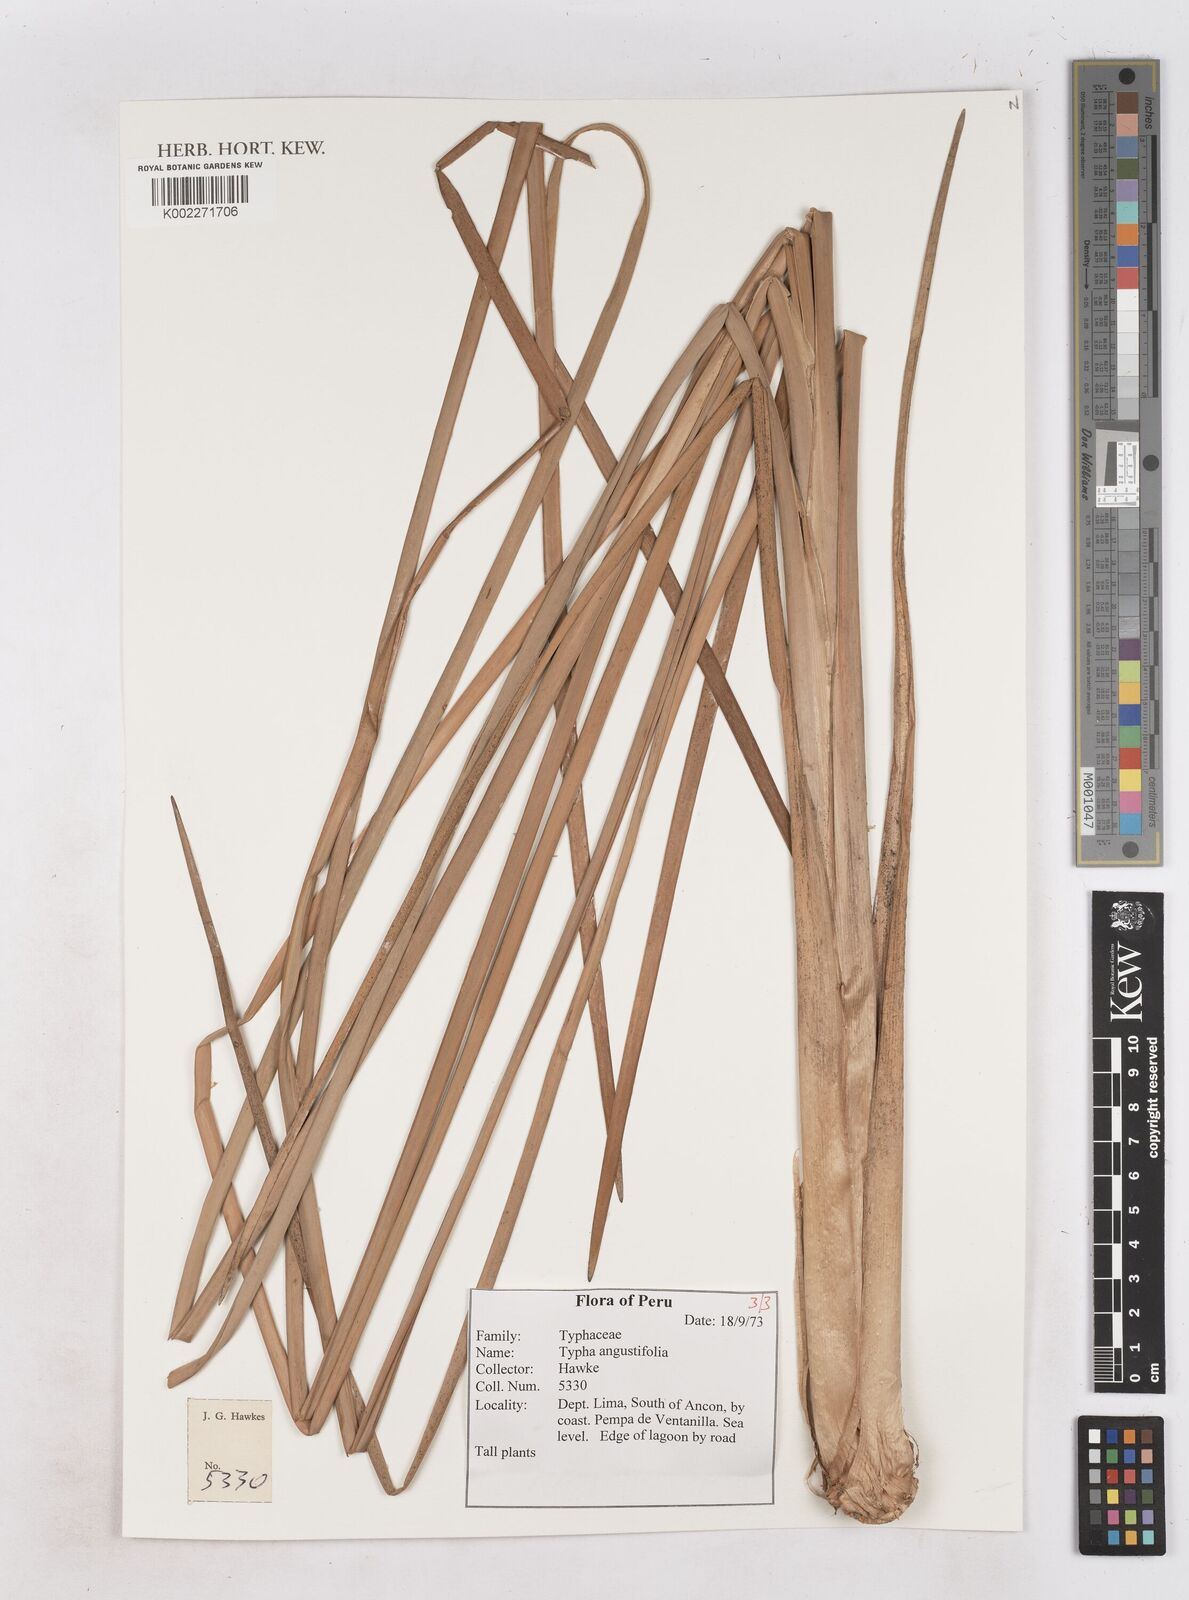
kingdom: Plantae
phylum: Tracheophyta
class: Liliopsida
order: Poales
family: Typhaceae
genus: Typha
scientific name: Typha angustifolia
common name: Lesser bulrush
